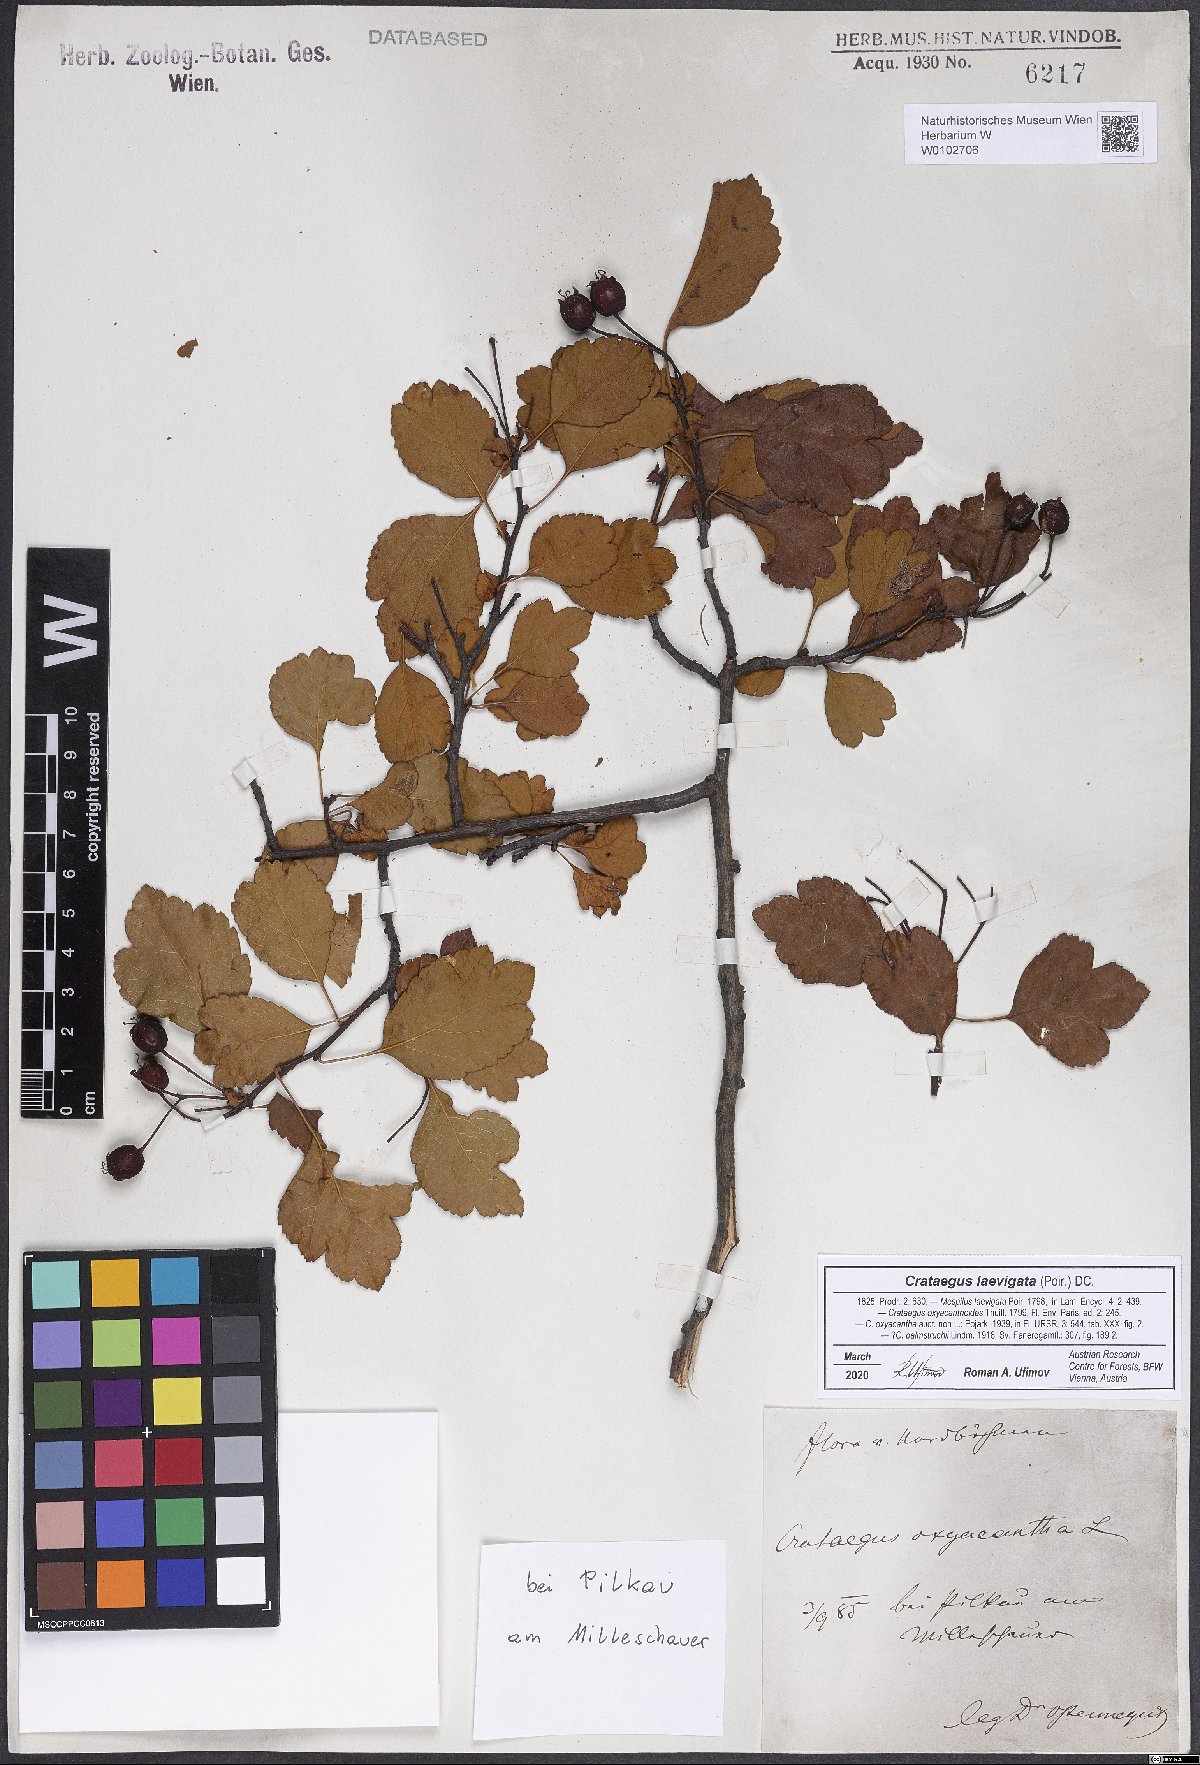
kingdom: Plantae
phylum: Tracheophyta
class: Magnoliopsida
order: Rosales
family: Rosaceae
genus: Crataegus
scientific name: Crataegus laevigata
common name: Midland hawthorn
